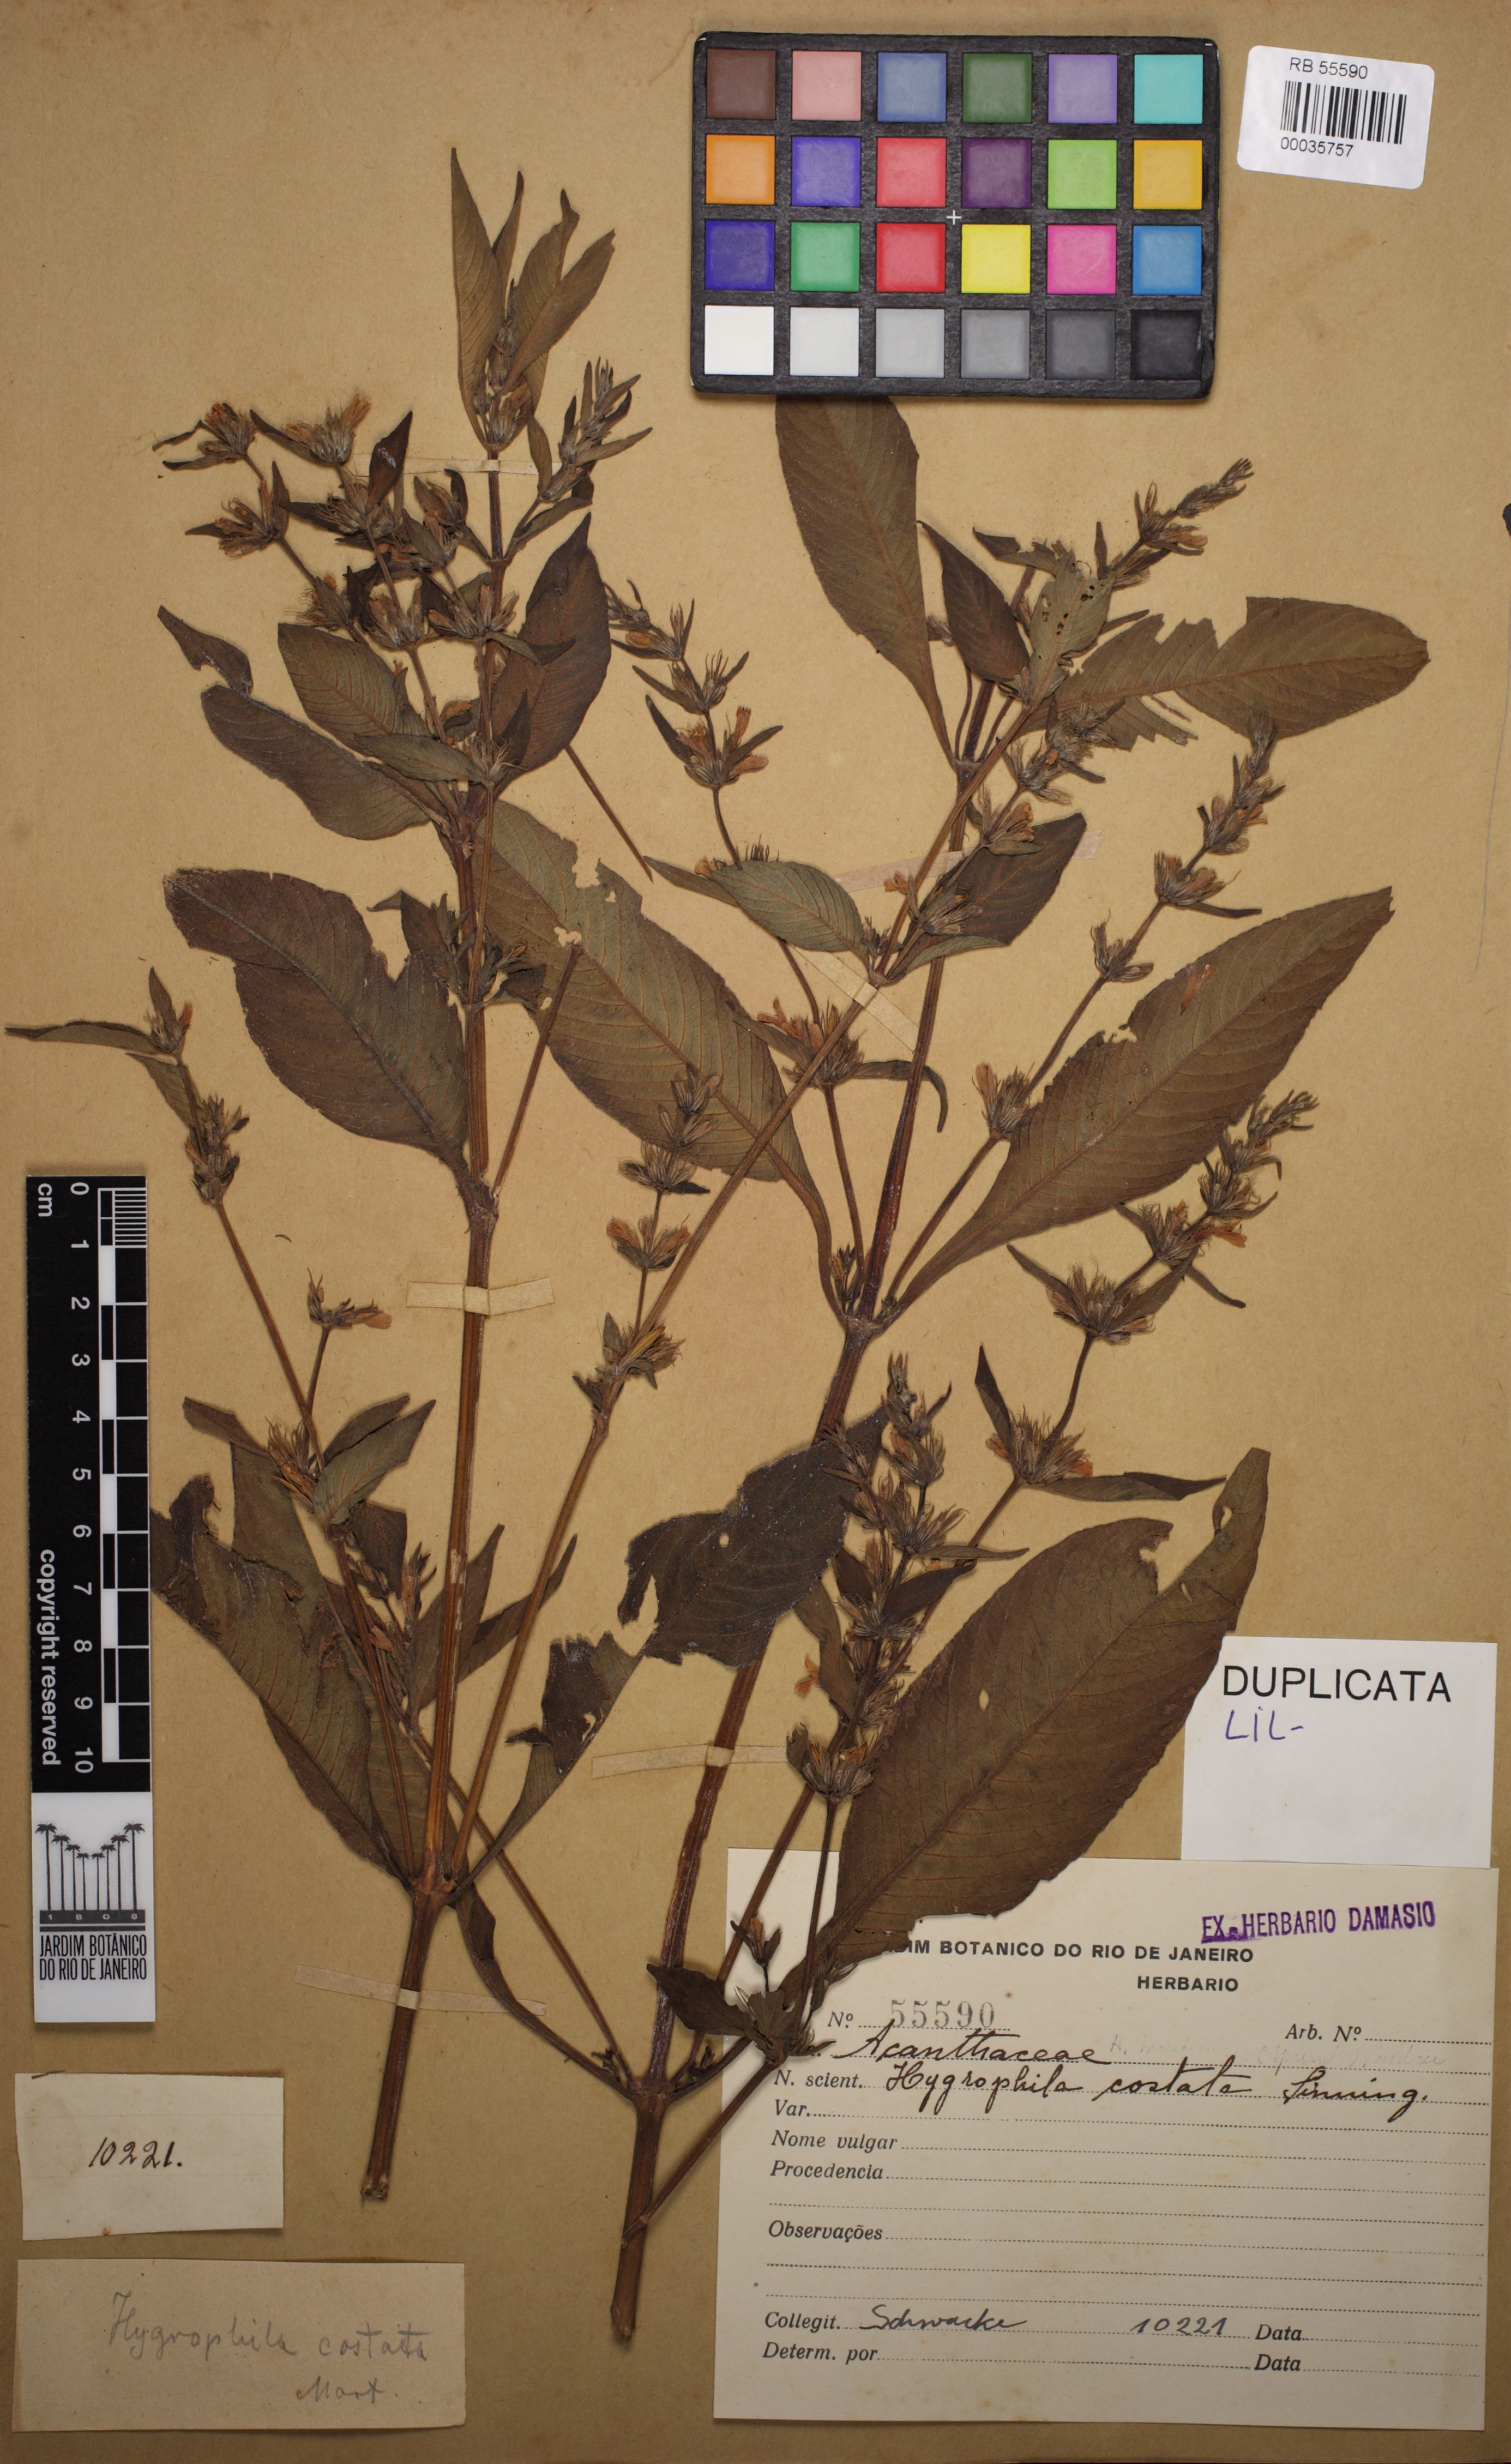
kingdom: Plantae
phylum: Tracheophyta
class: Magnoliopsida
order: Lamiales
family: Acanthaceae
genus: Hygrophila
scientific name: Hygrophila costata
